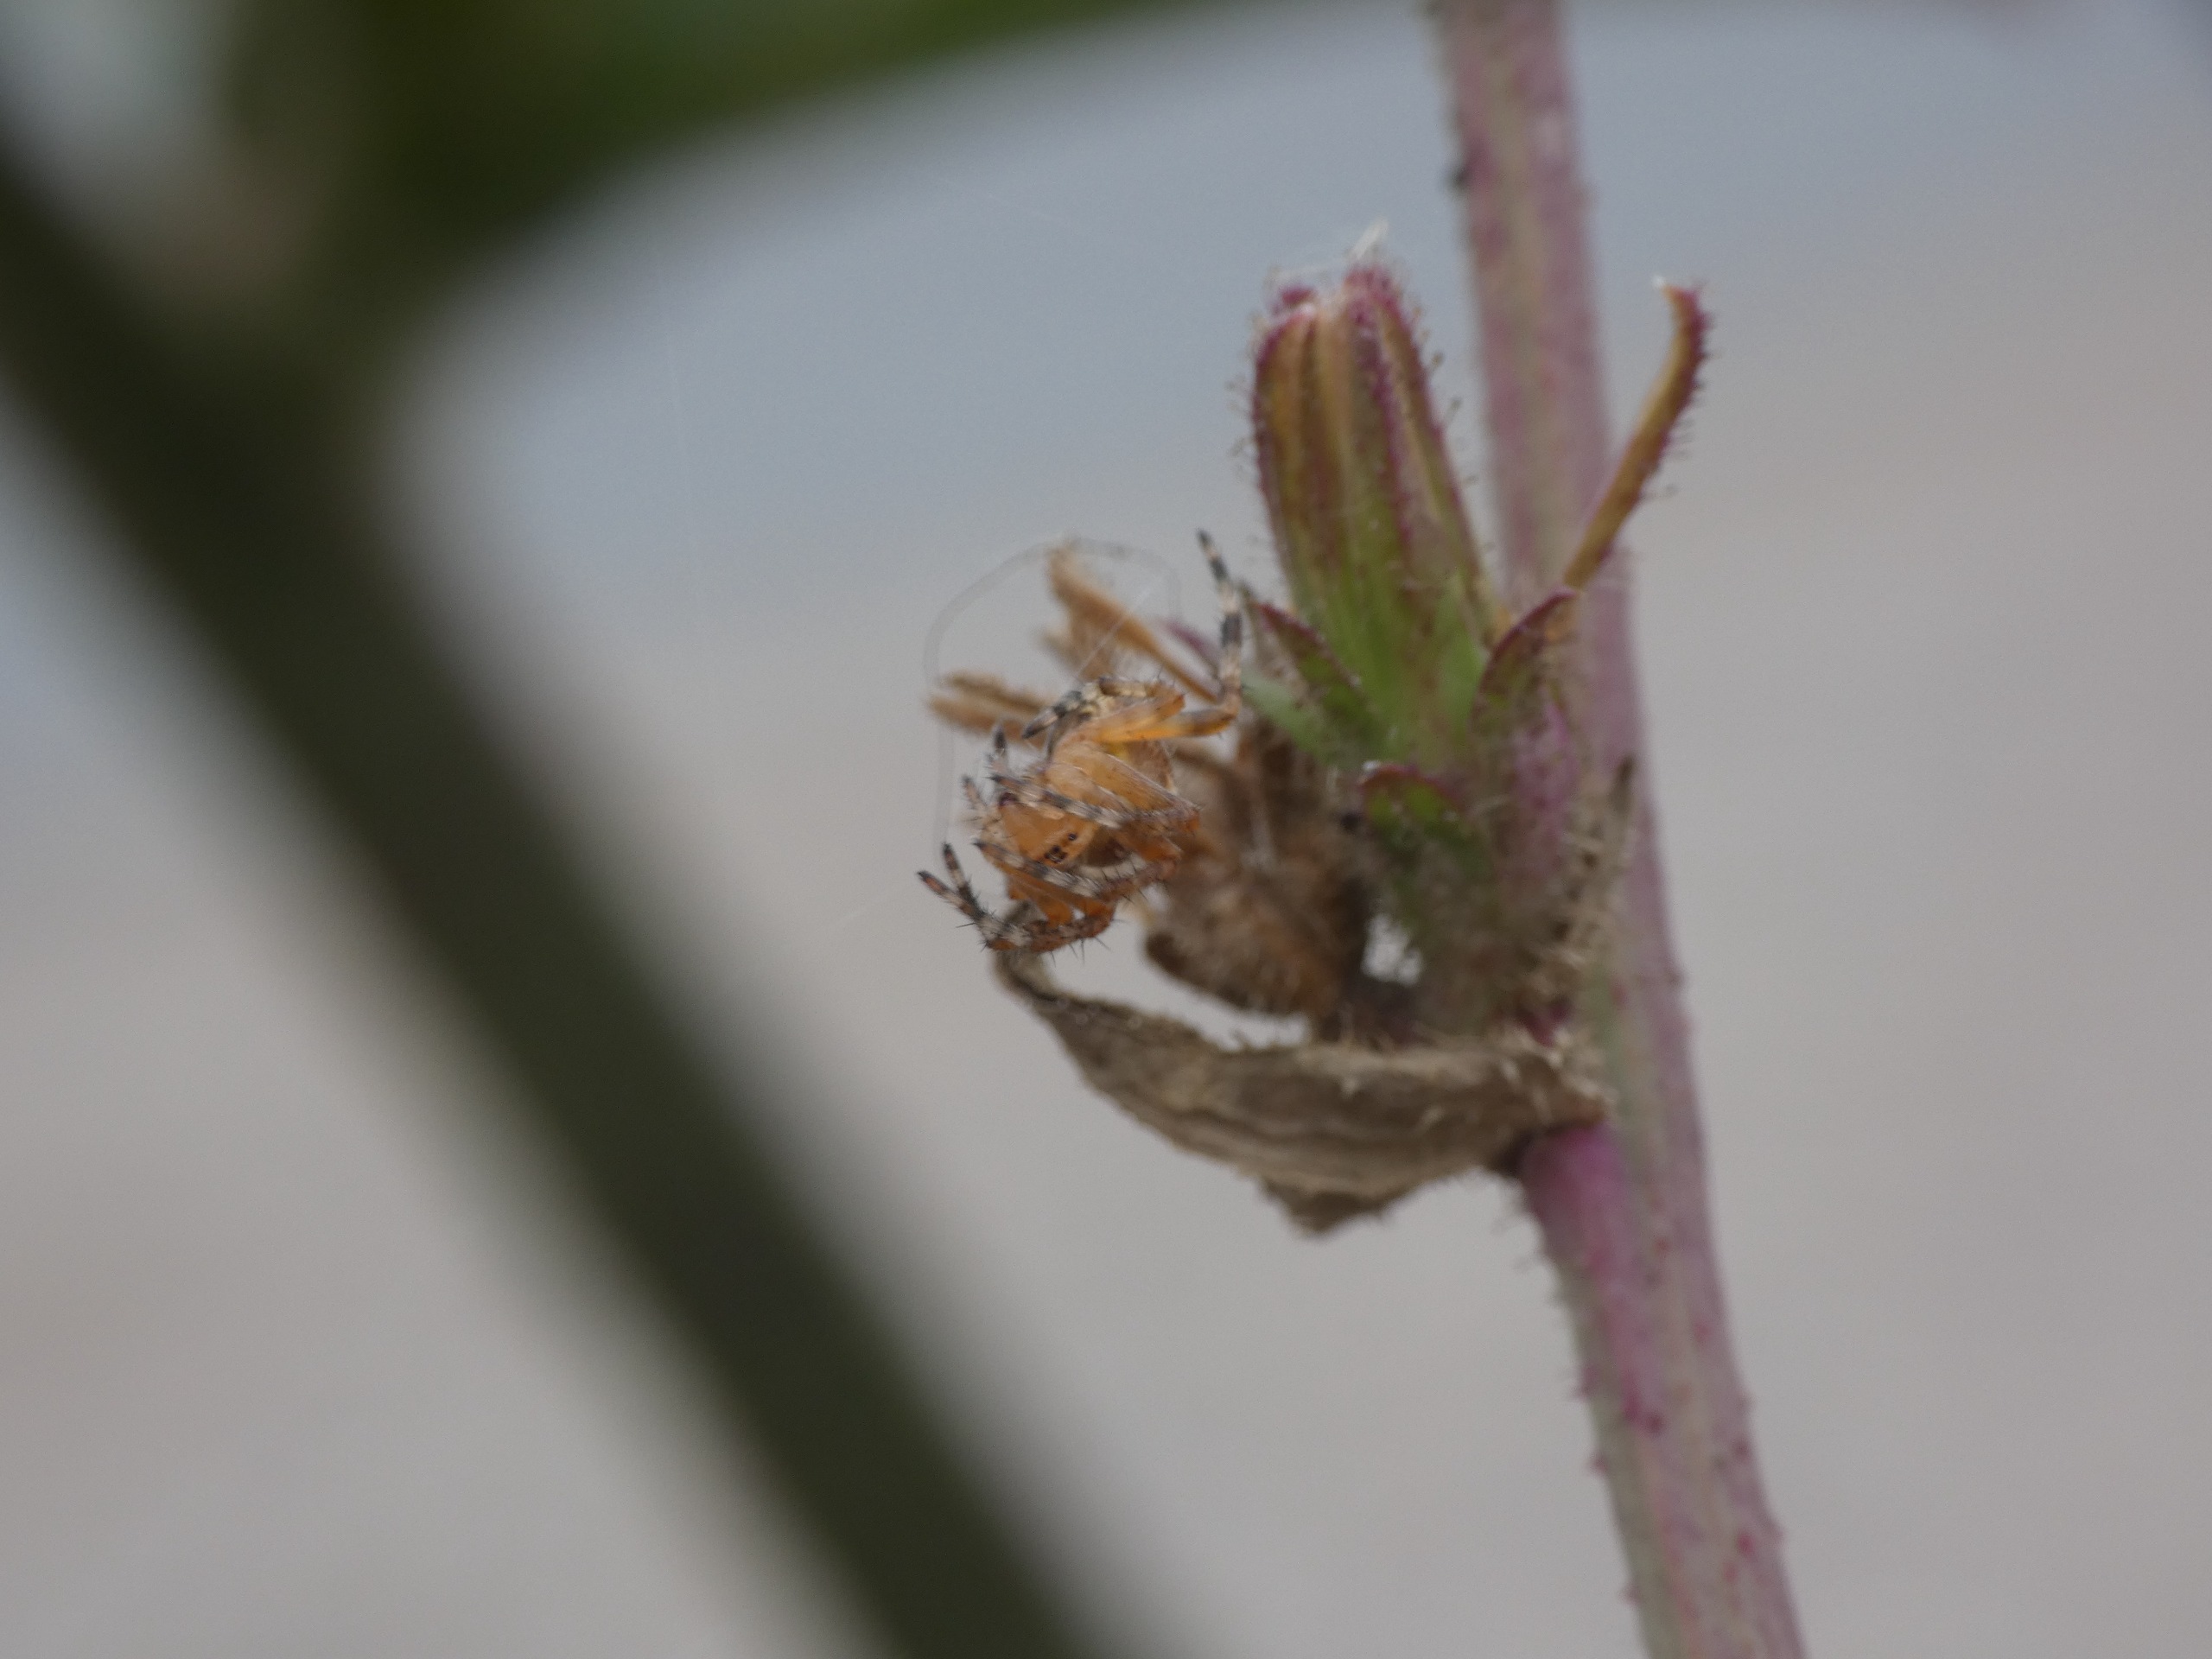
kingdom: Animalia
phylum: Arthropoda
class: Arachnida
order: Araneae
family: Araneidae
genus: Araneus
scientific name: Araneus diadematus
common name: Korsedderkop
